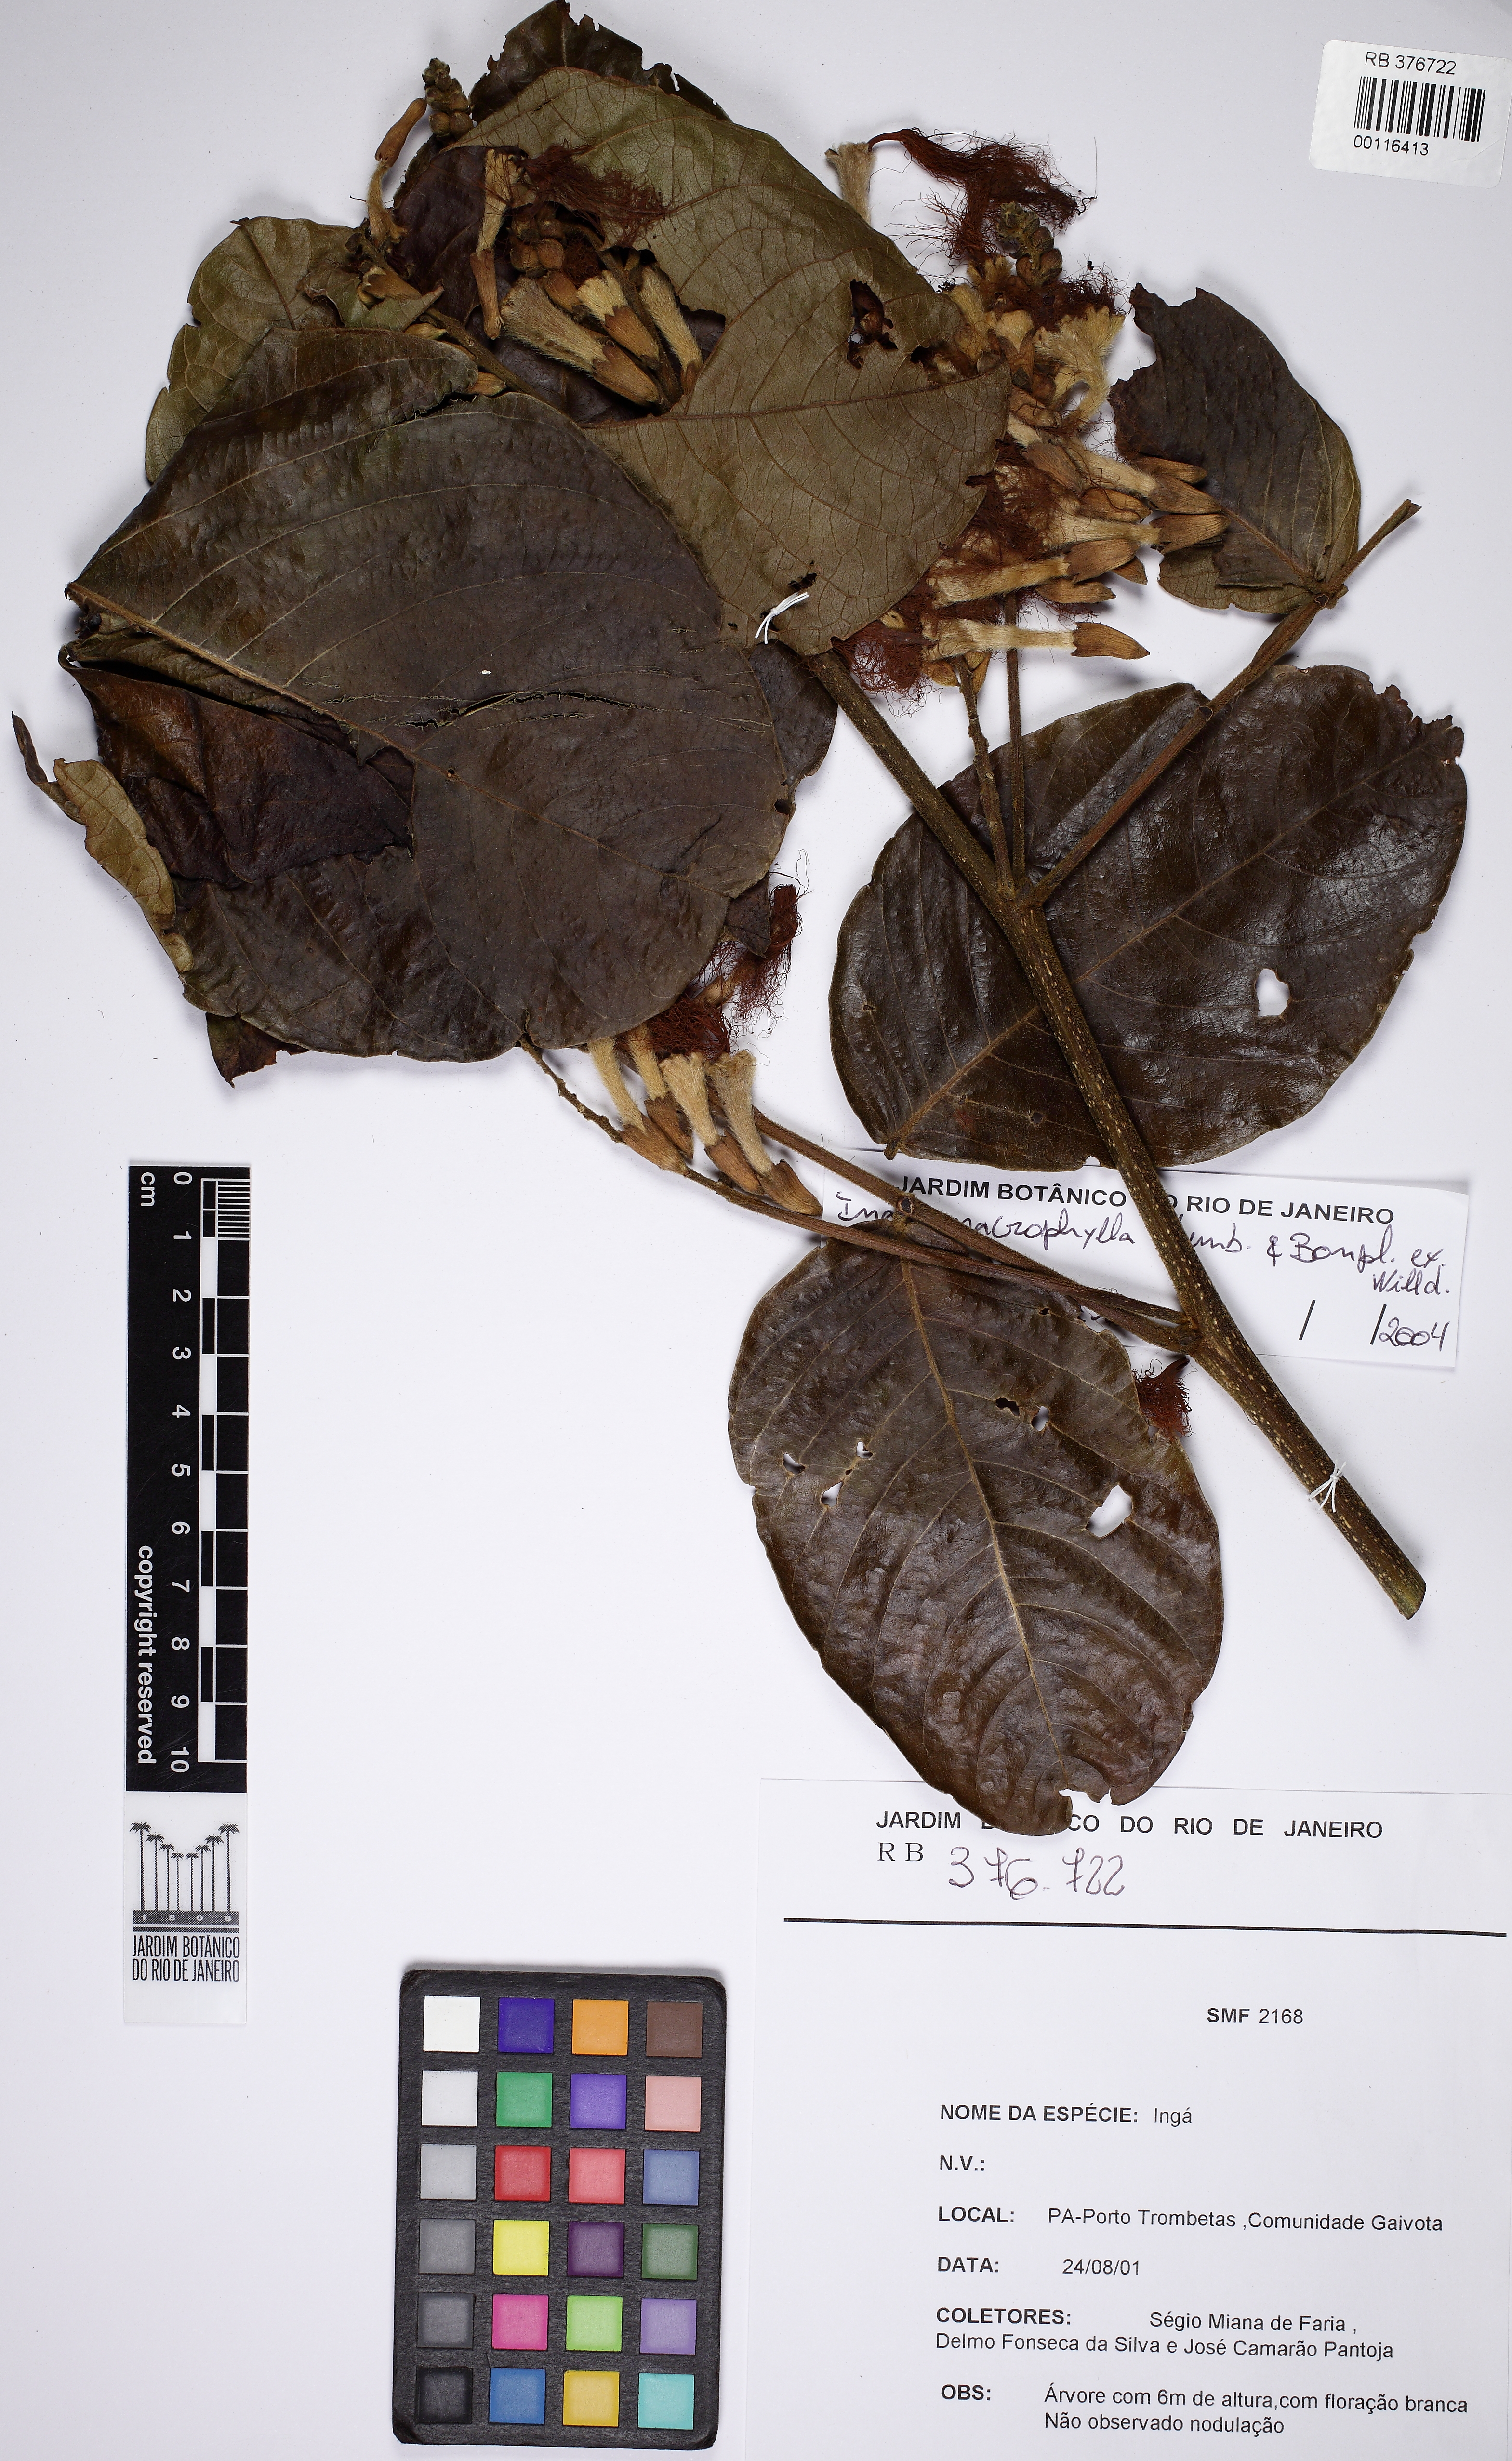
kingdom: Plantae
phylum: Tracheophyta
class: Magnoliopsida
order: Fabales
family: Fabaceae
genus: Inga
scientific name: Inga macrophylla
